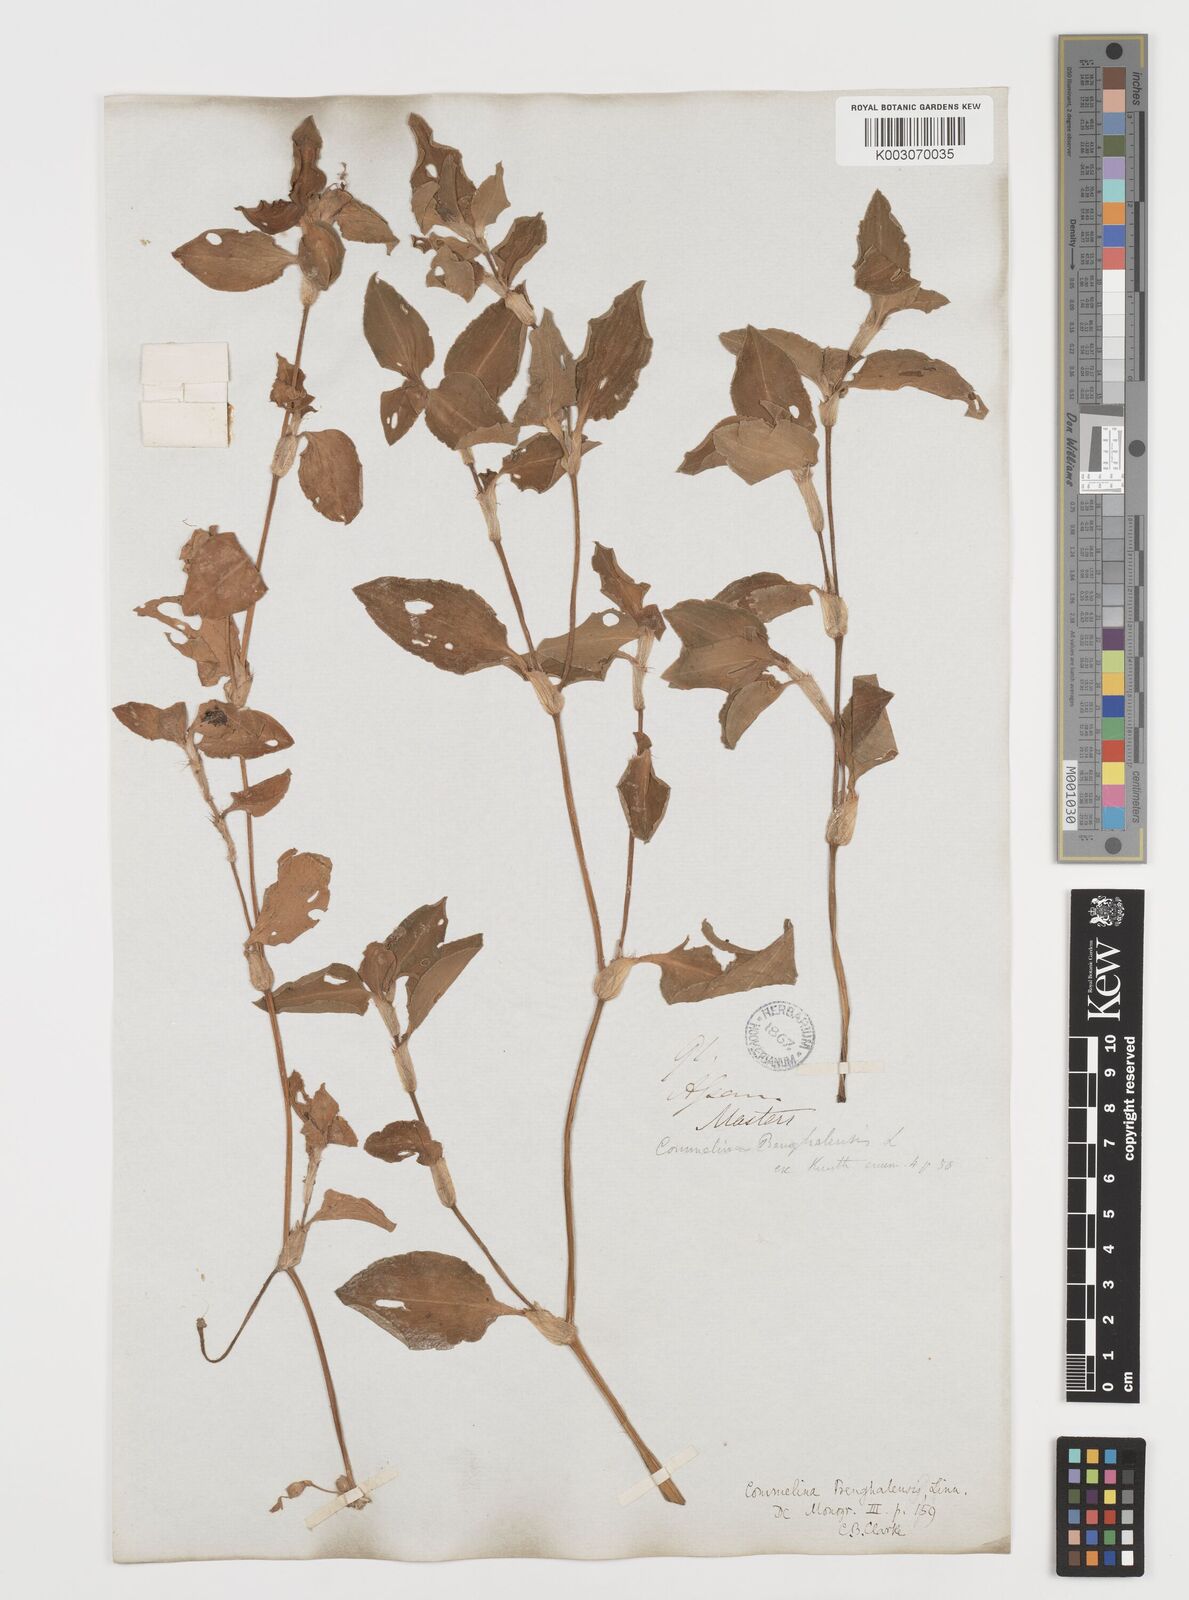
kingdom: Plantae
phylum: Tracheophyta
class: Liliopsida
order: Commelinales
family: Commelinaceae
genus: Commelina
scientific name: Commelina
